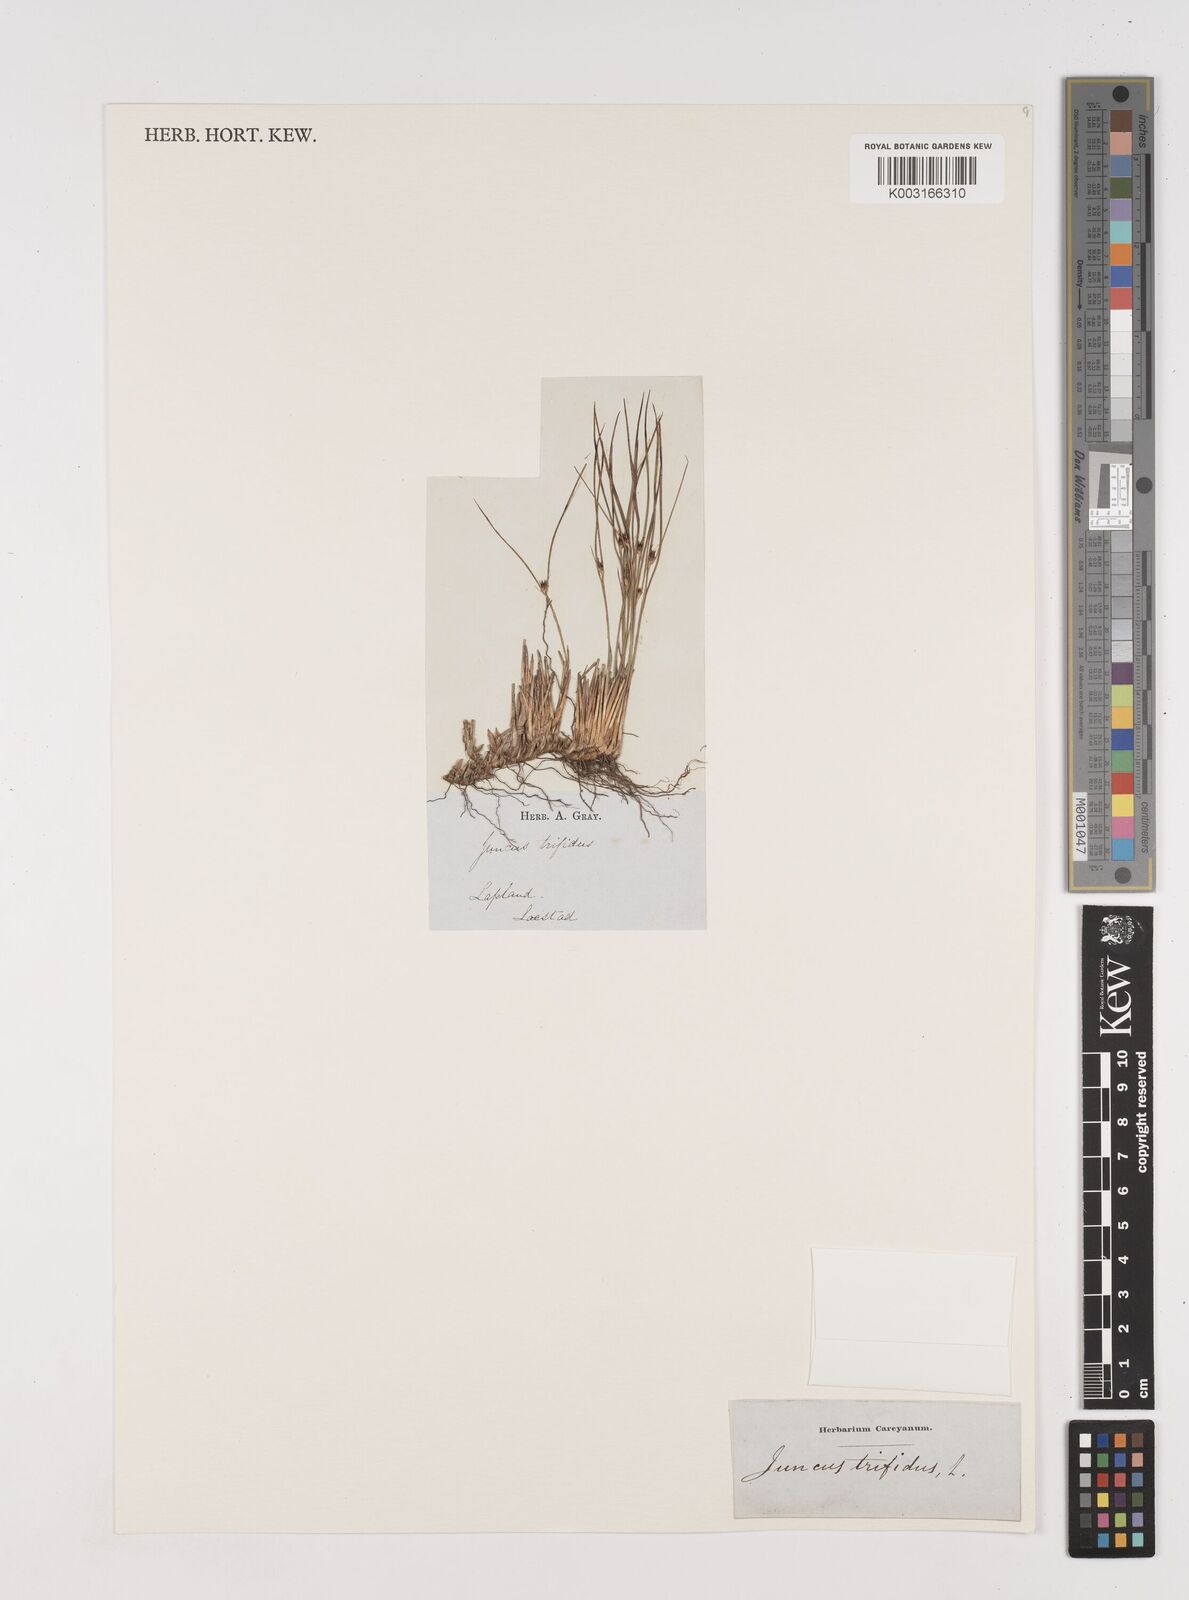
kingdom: Plantae
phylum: Tracheophyta
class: Liliopsida
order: Poales
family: Juncaceae
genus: Oreojuncus
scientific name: Oreojuncus trifidus
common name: Highland rush
